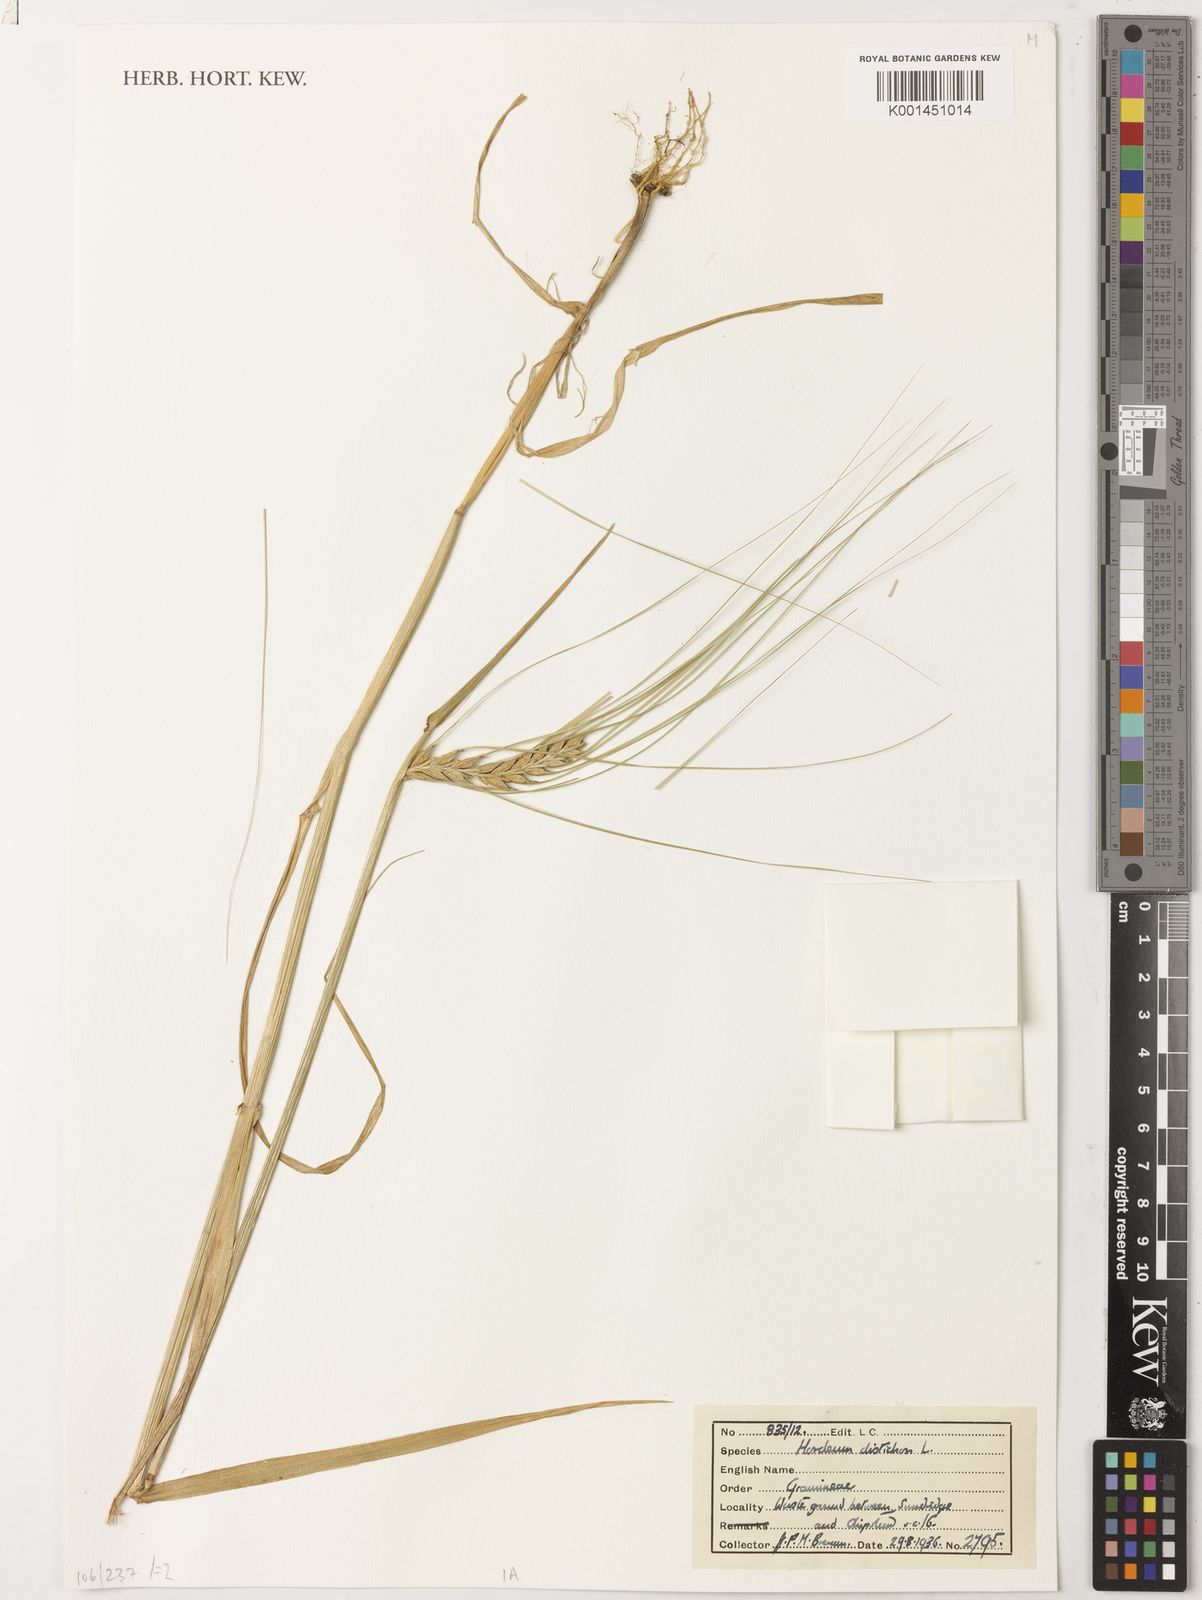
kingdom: Plantae
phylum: Tracheophyta
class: Liliopsida
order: Poales
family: Poaceae
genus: Hordeum
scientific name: Hordeum vulgare
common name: Common barley
